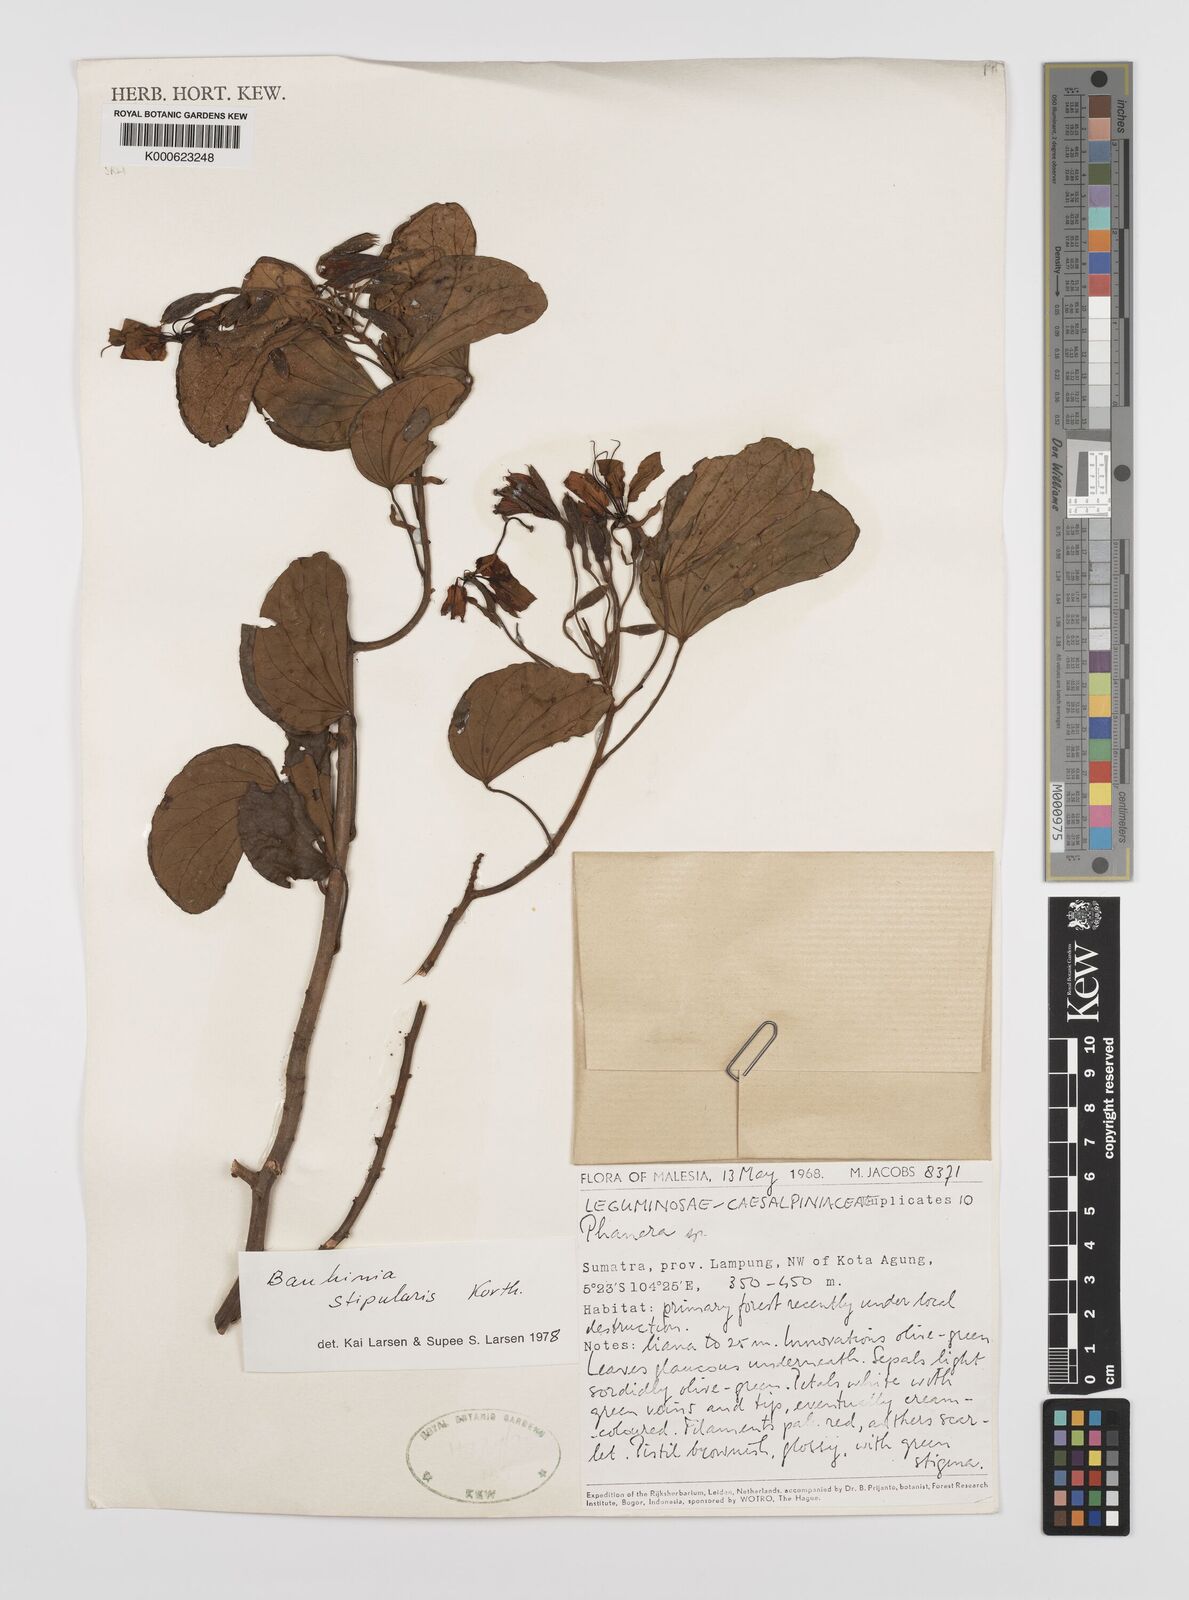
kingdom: Plantae
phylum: Tracheophyta
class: Magnoliopsida
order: Fabales
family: Fabaceae
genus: Phanera
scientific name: Phanera stipularis
